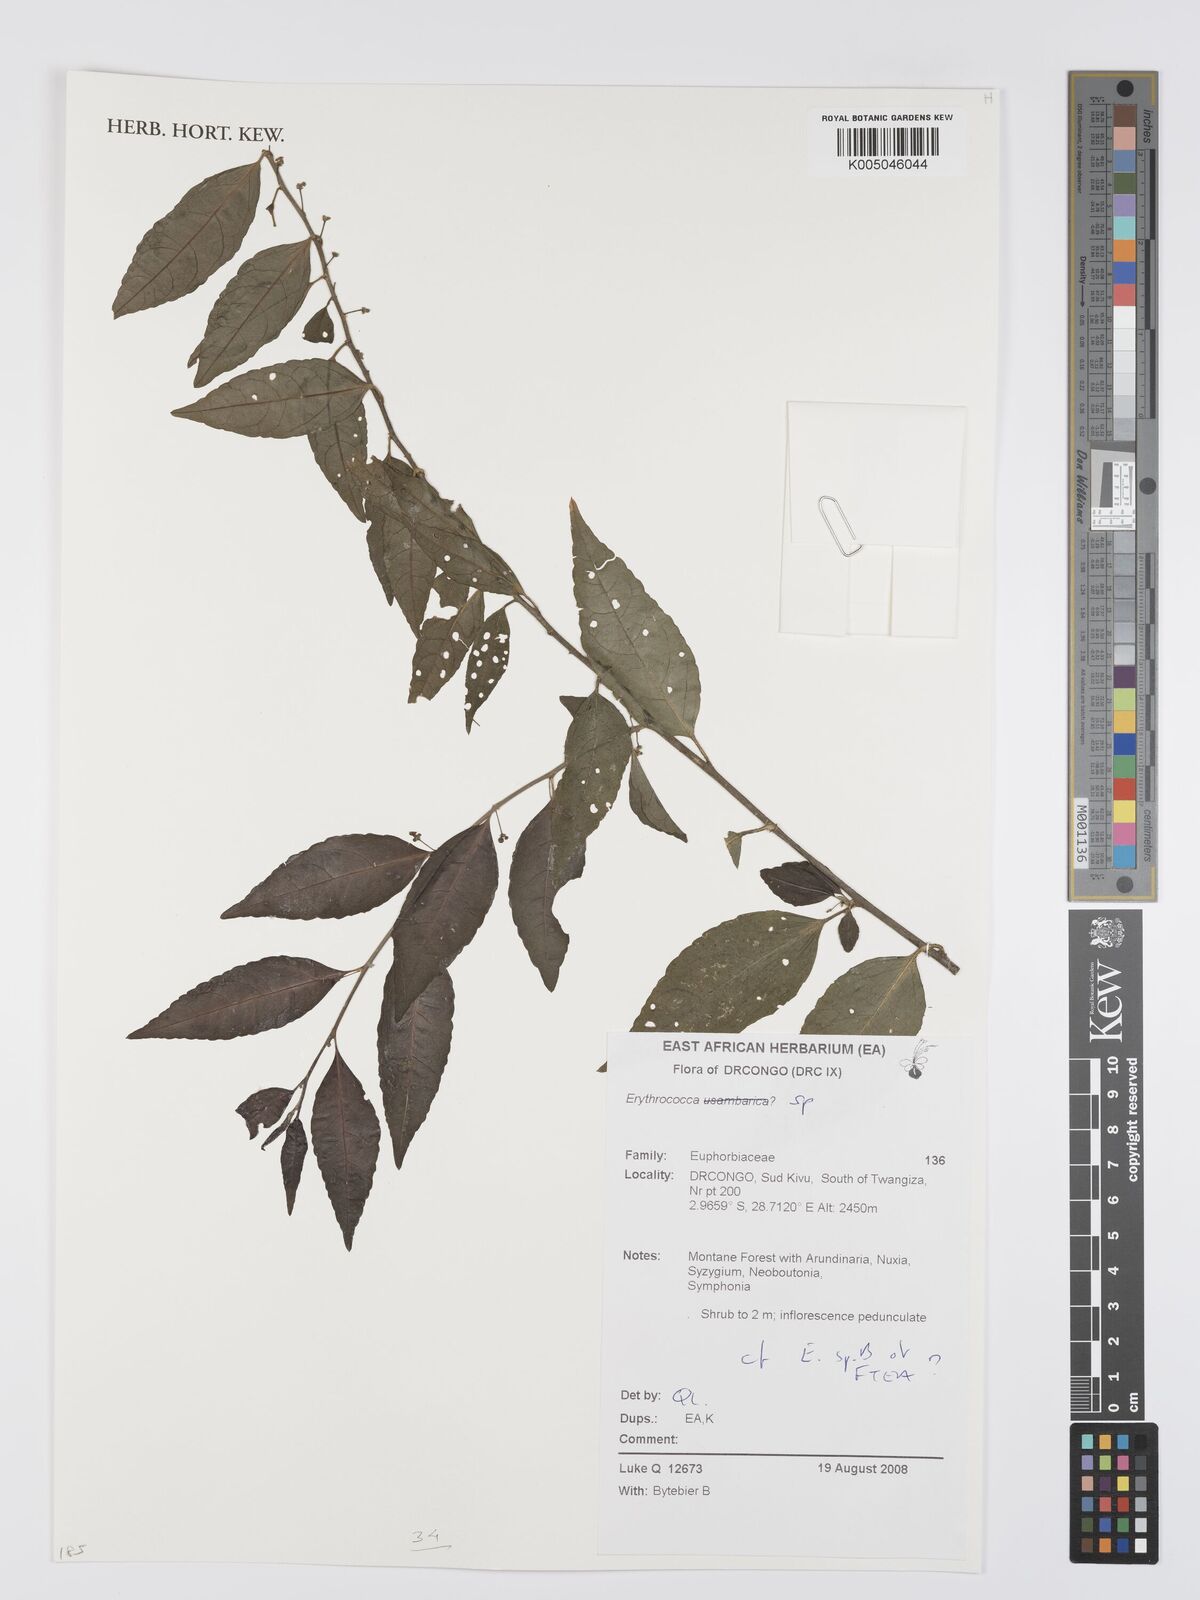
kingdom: Plantae
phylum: Tracheophyta
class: Magnoliopsida
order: Malpighiales
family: Euphorbiaceae
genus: Erythrococca
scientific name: Erythrococca
